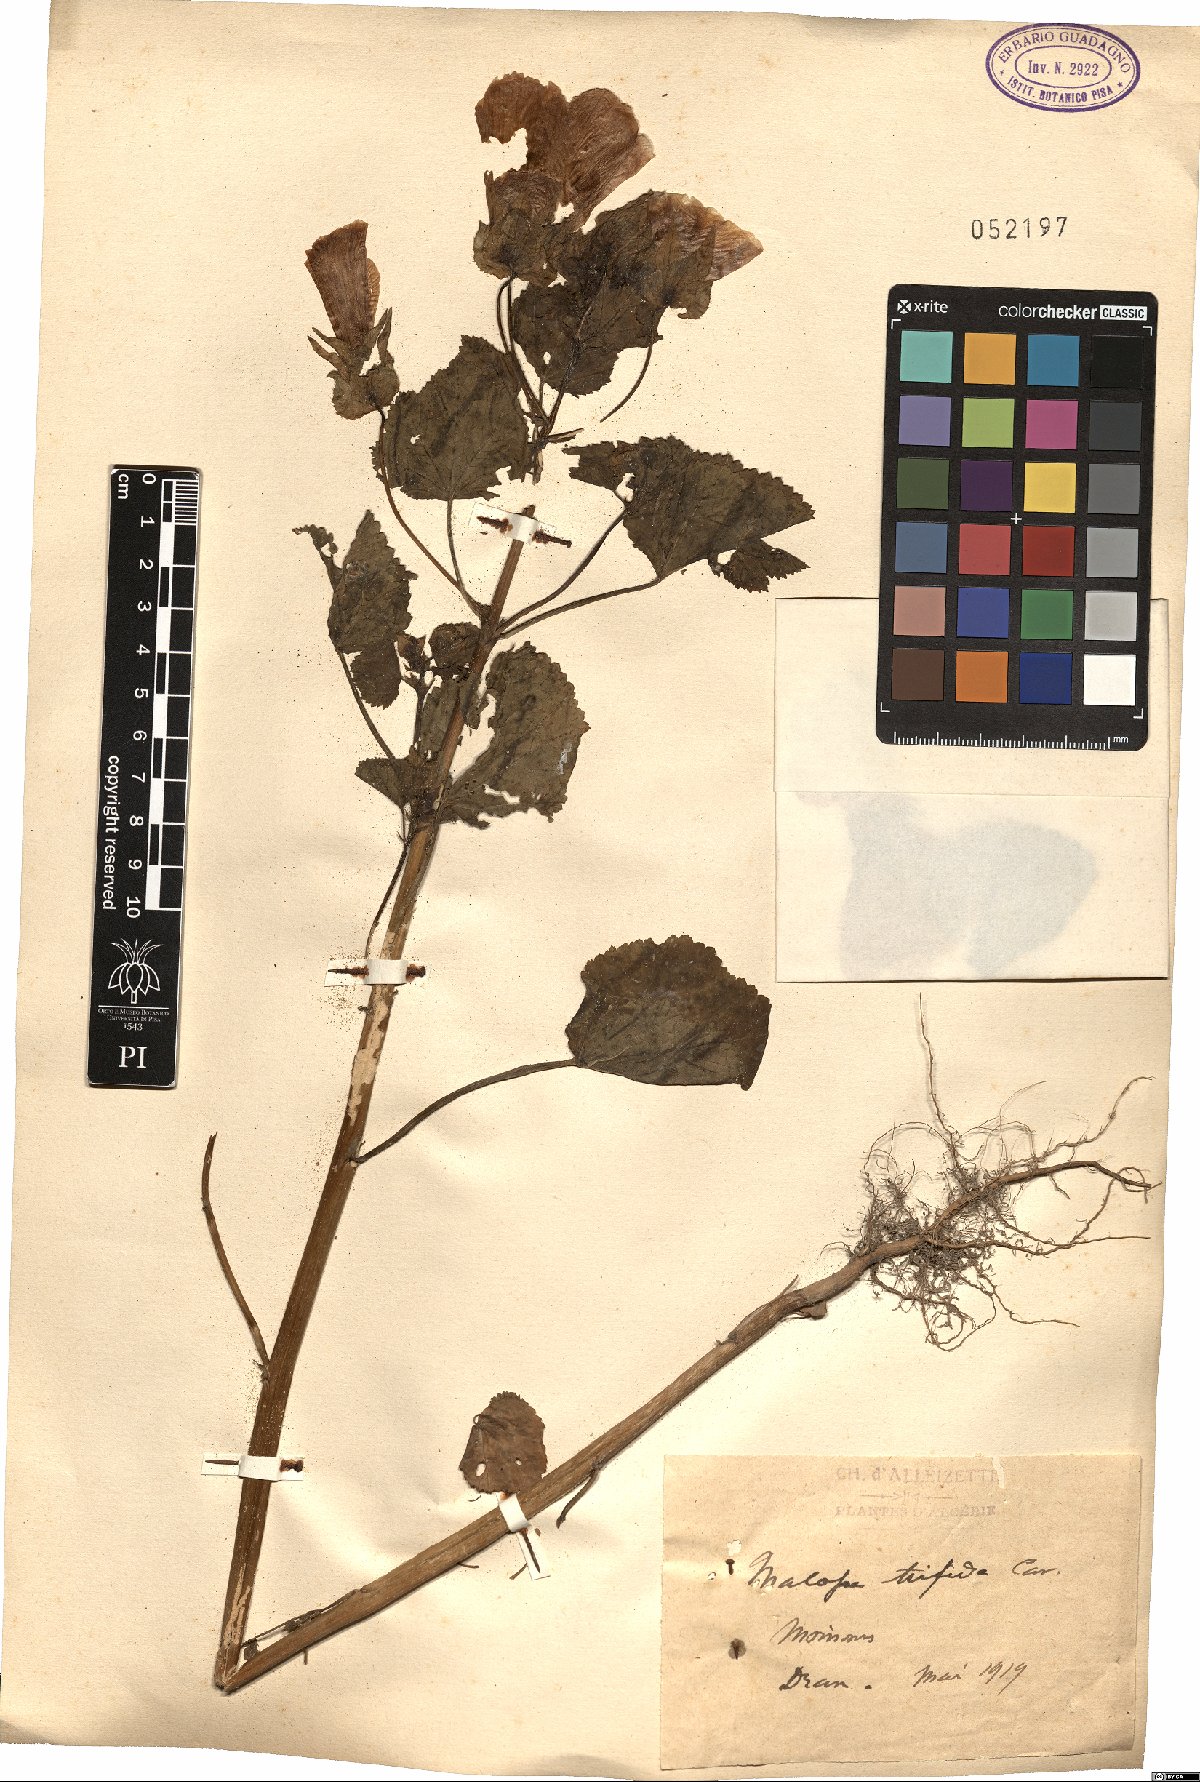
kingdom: Plantae
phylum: Tracheophyta
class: Magnoliopsida
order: Malvales
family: Malvaceae
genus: Malope
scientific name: Malope trifida
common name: Mallow-wort
